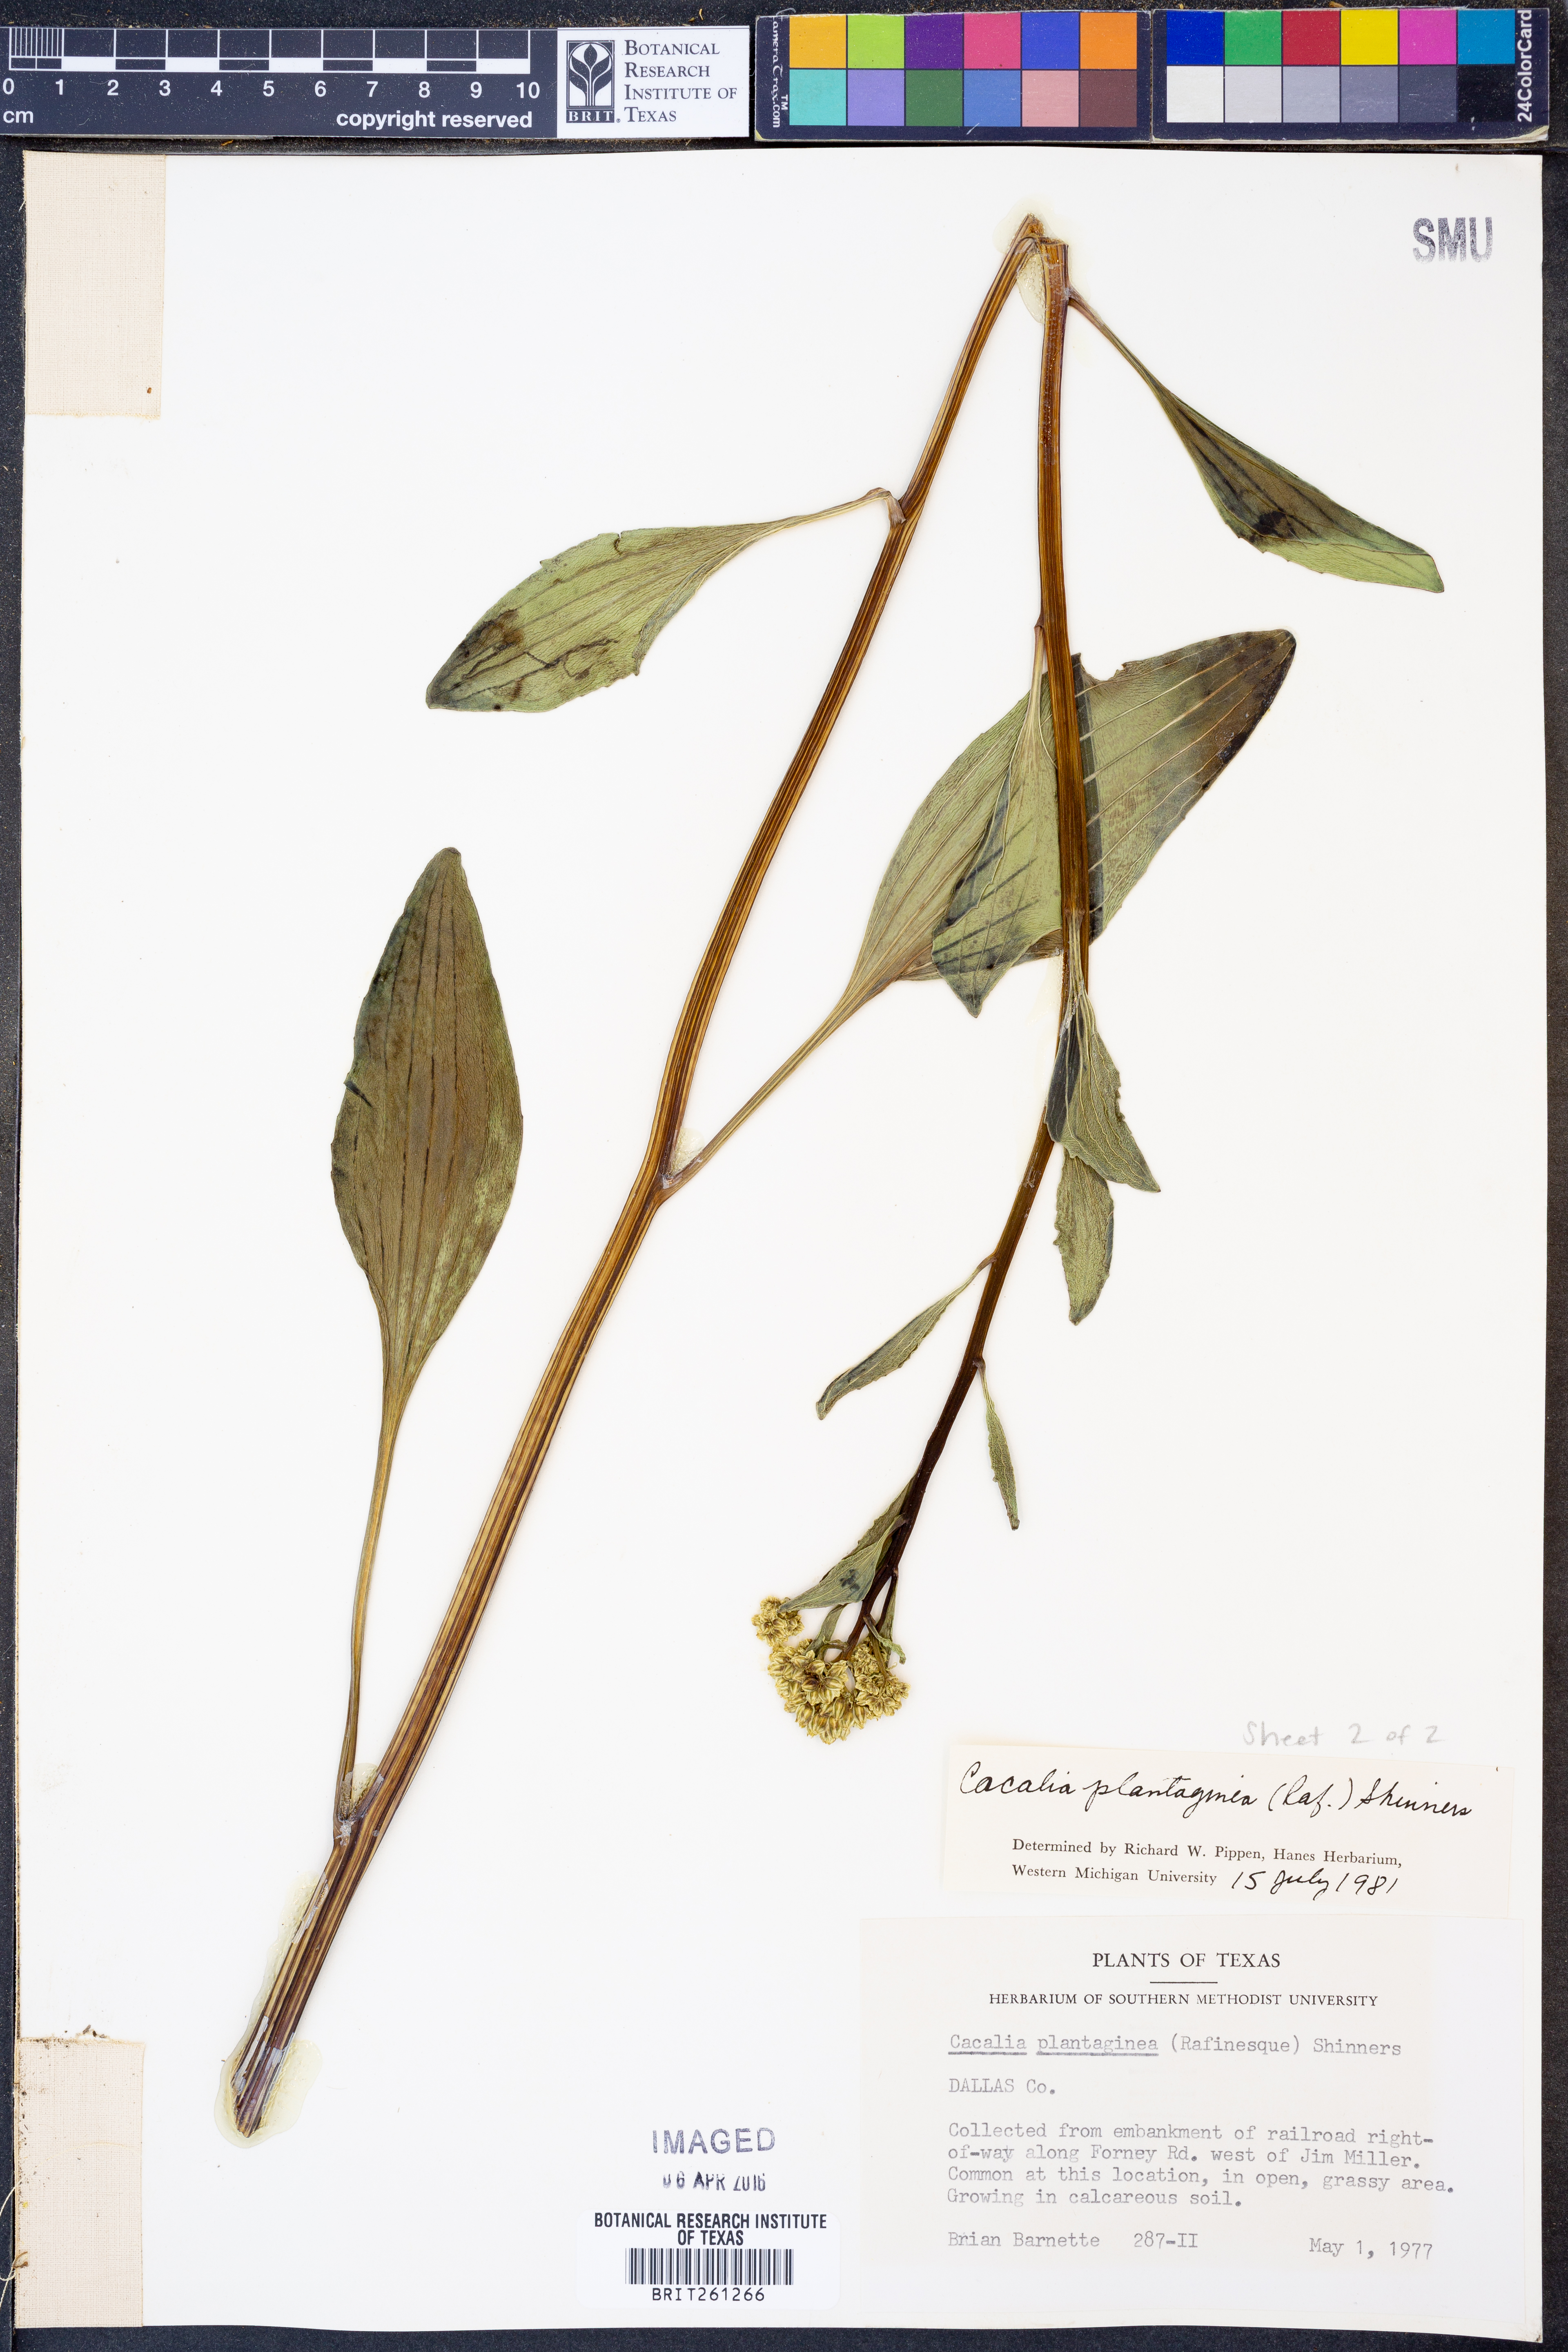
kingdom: Plantae
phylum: Tracheophyta
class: Magnoliopsida
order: Asterales
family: Asteraceae
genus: Arnoglossum
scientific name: Arnoglossum plantagineum
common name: Groove-stemmed indian-plantain
